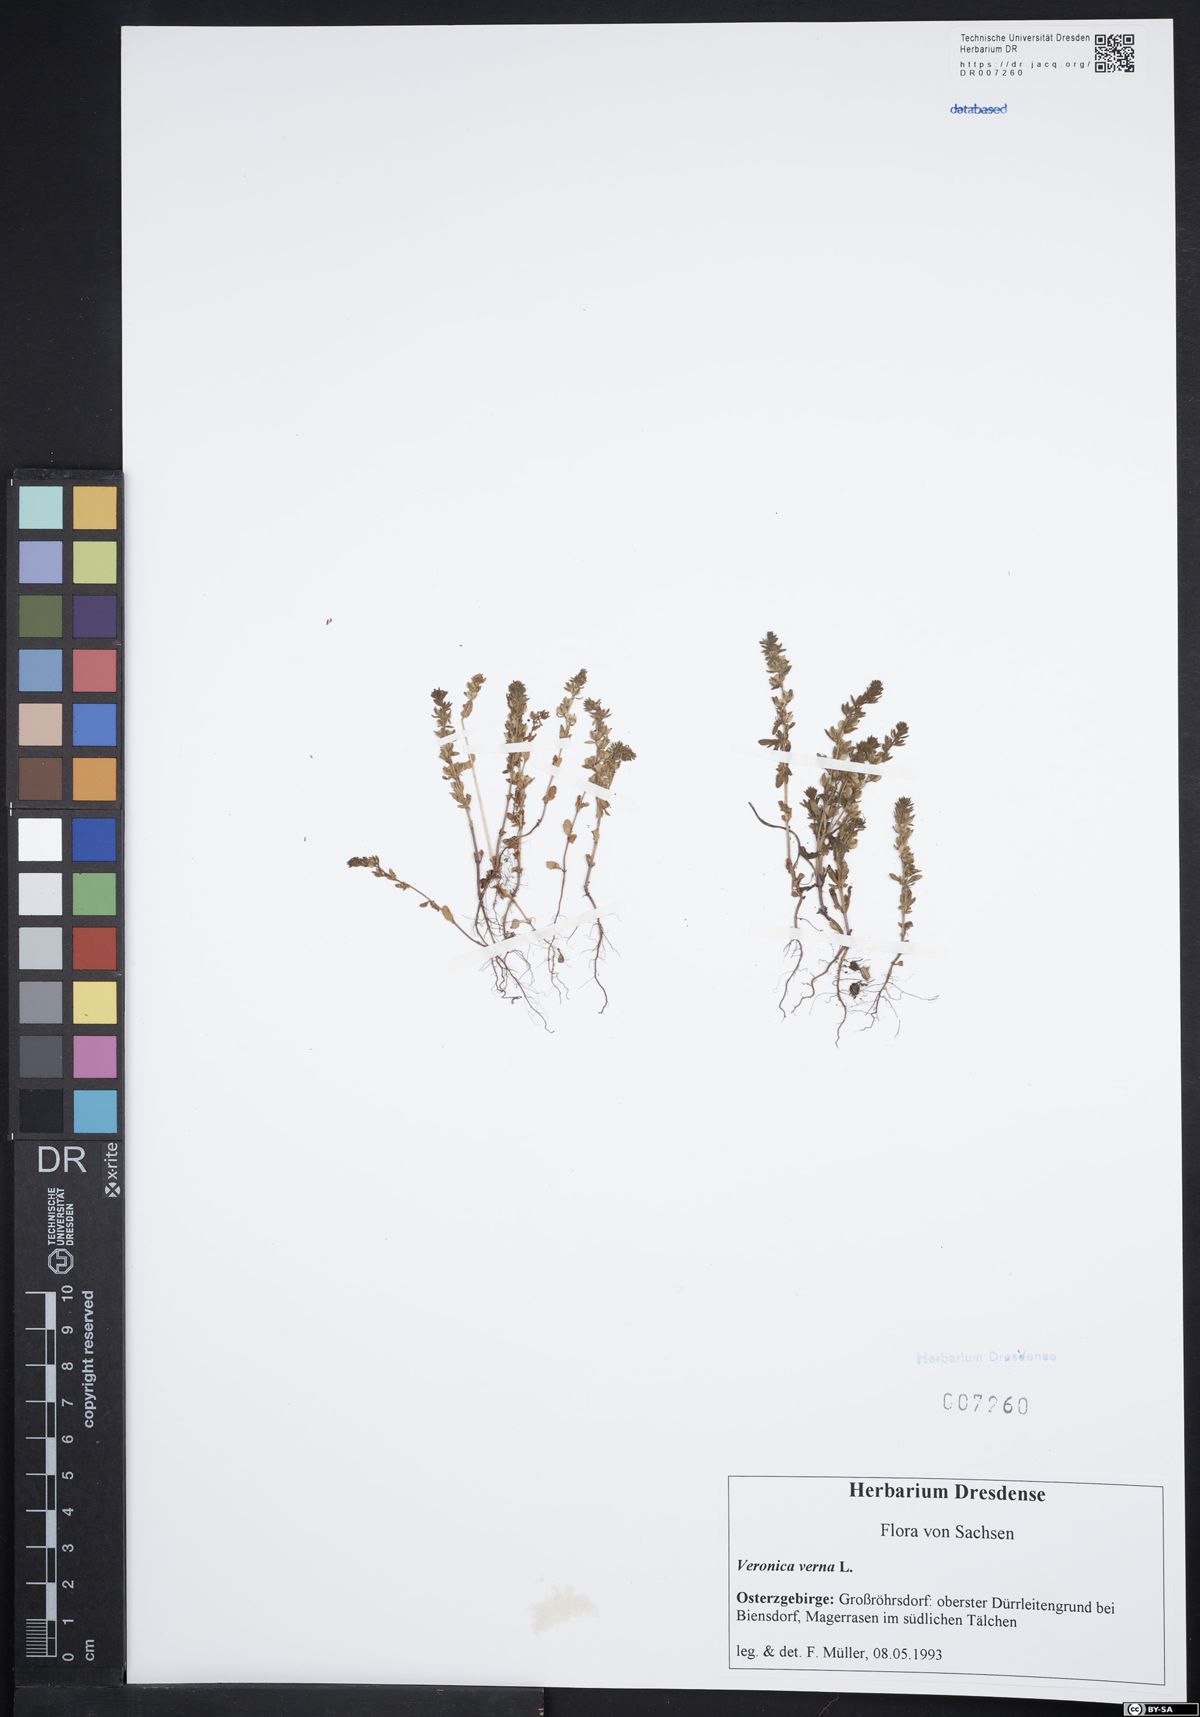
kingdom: Plantae
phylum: Tracheophyta
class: Magnoliopsida
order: Lamiales
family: Plantaginaceae
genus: Veronica
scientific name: Veronica verna
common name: Spring speedwell
